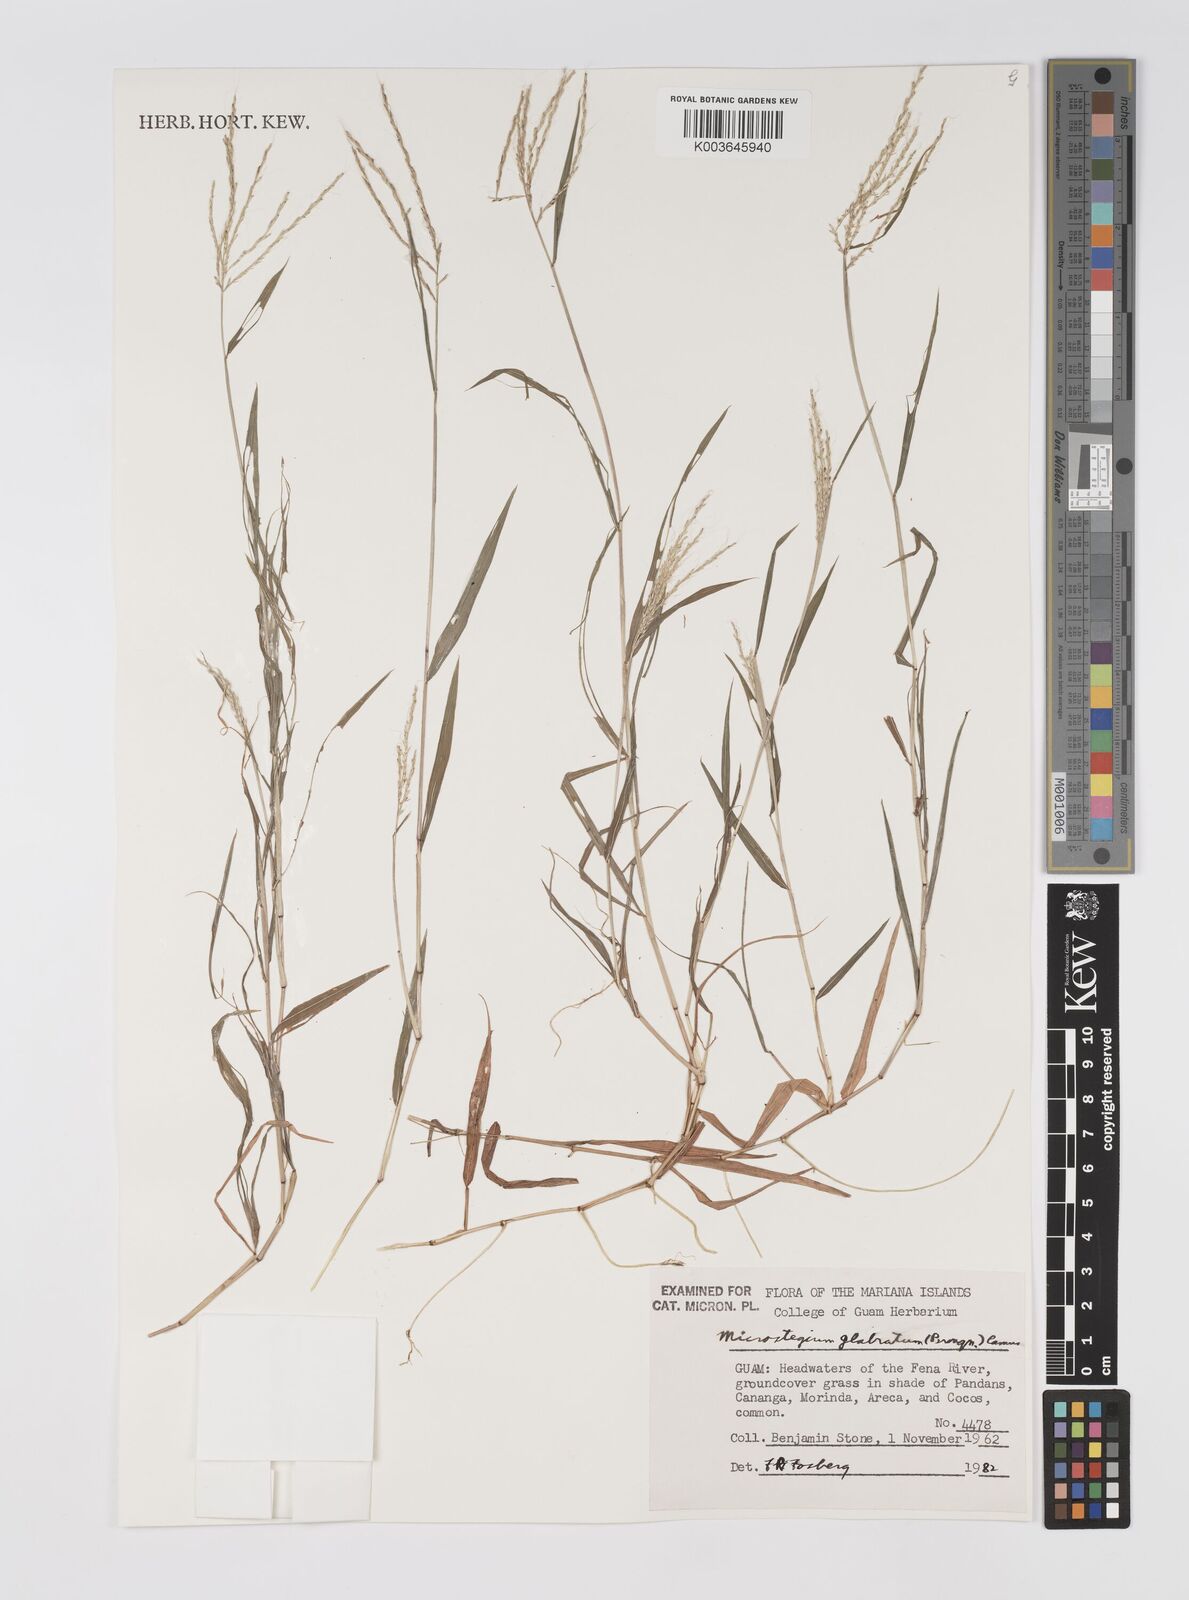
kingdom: Plantae
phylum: Tracheophyta
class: Liliopsida
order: Poales
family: Poaceae
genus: Microstegium
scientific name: Microstegium glabratum
